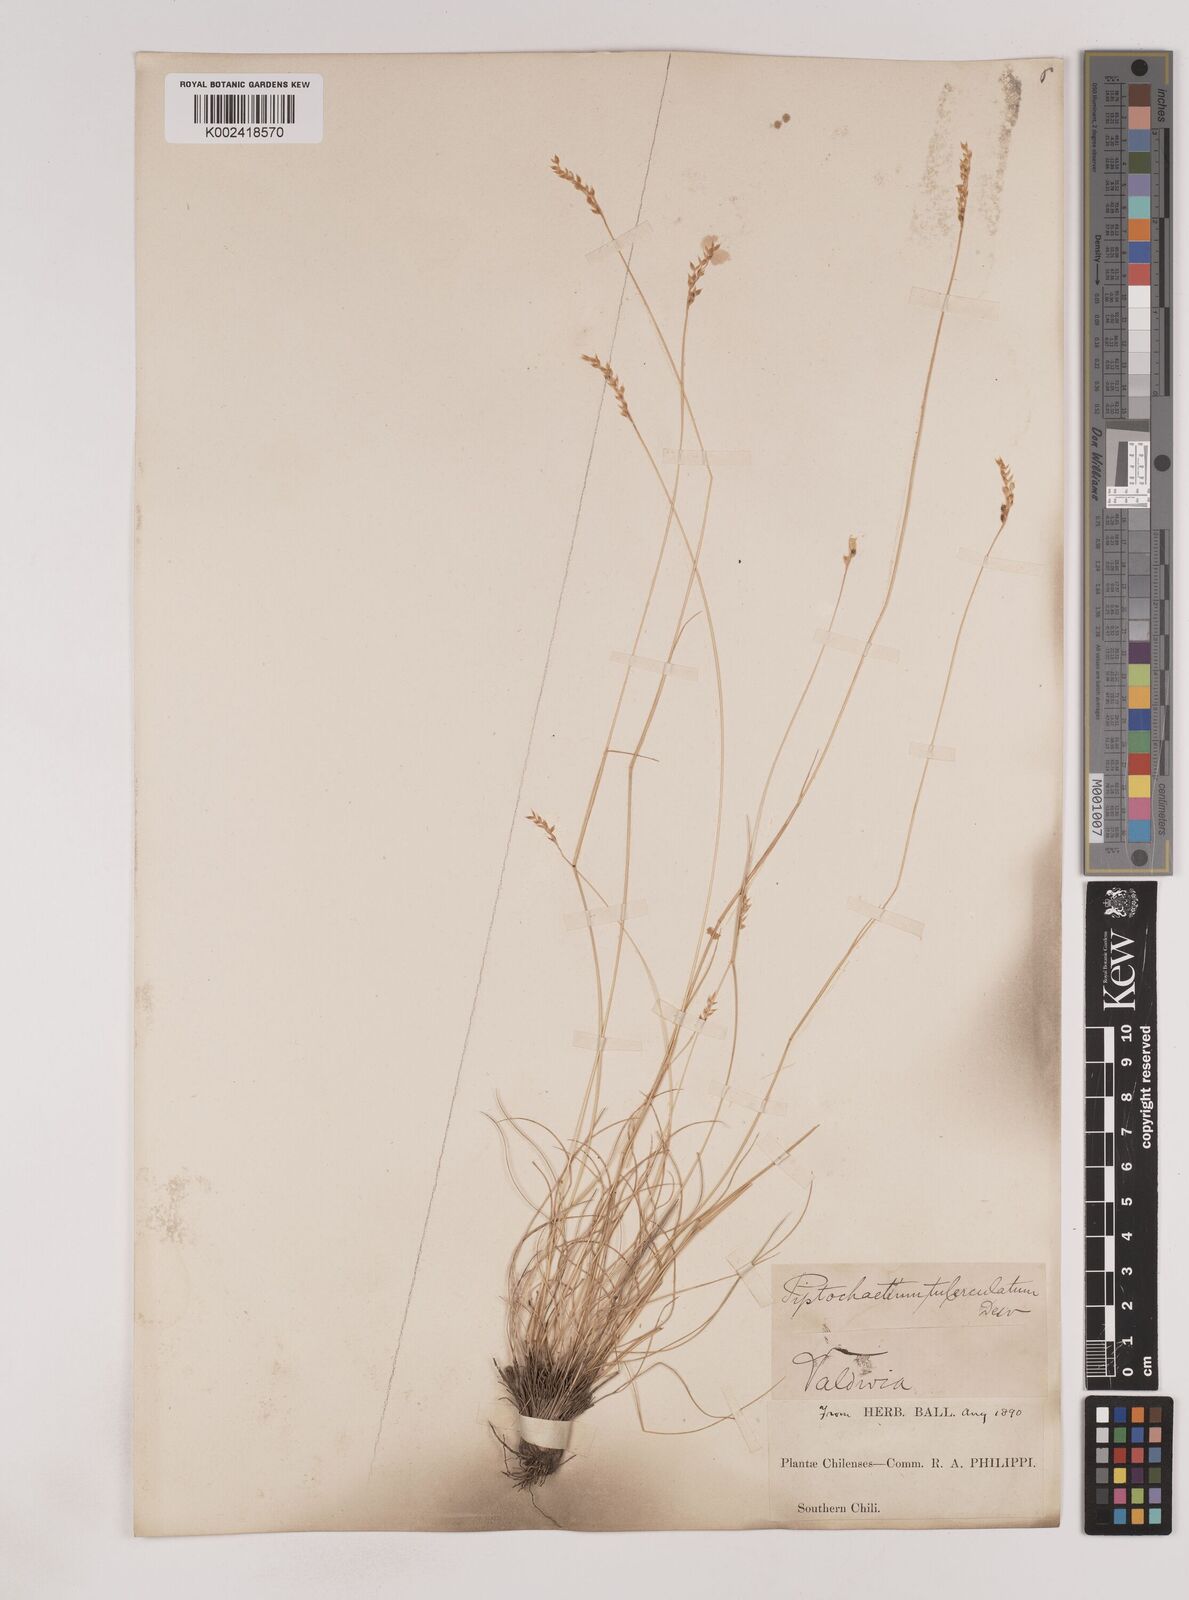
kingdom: Plantae
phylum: Tracheophyta
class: Liliopsida
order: Poales
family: Poaceae
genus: Piptochaetium
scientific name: Piptochaetium montevidense
